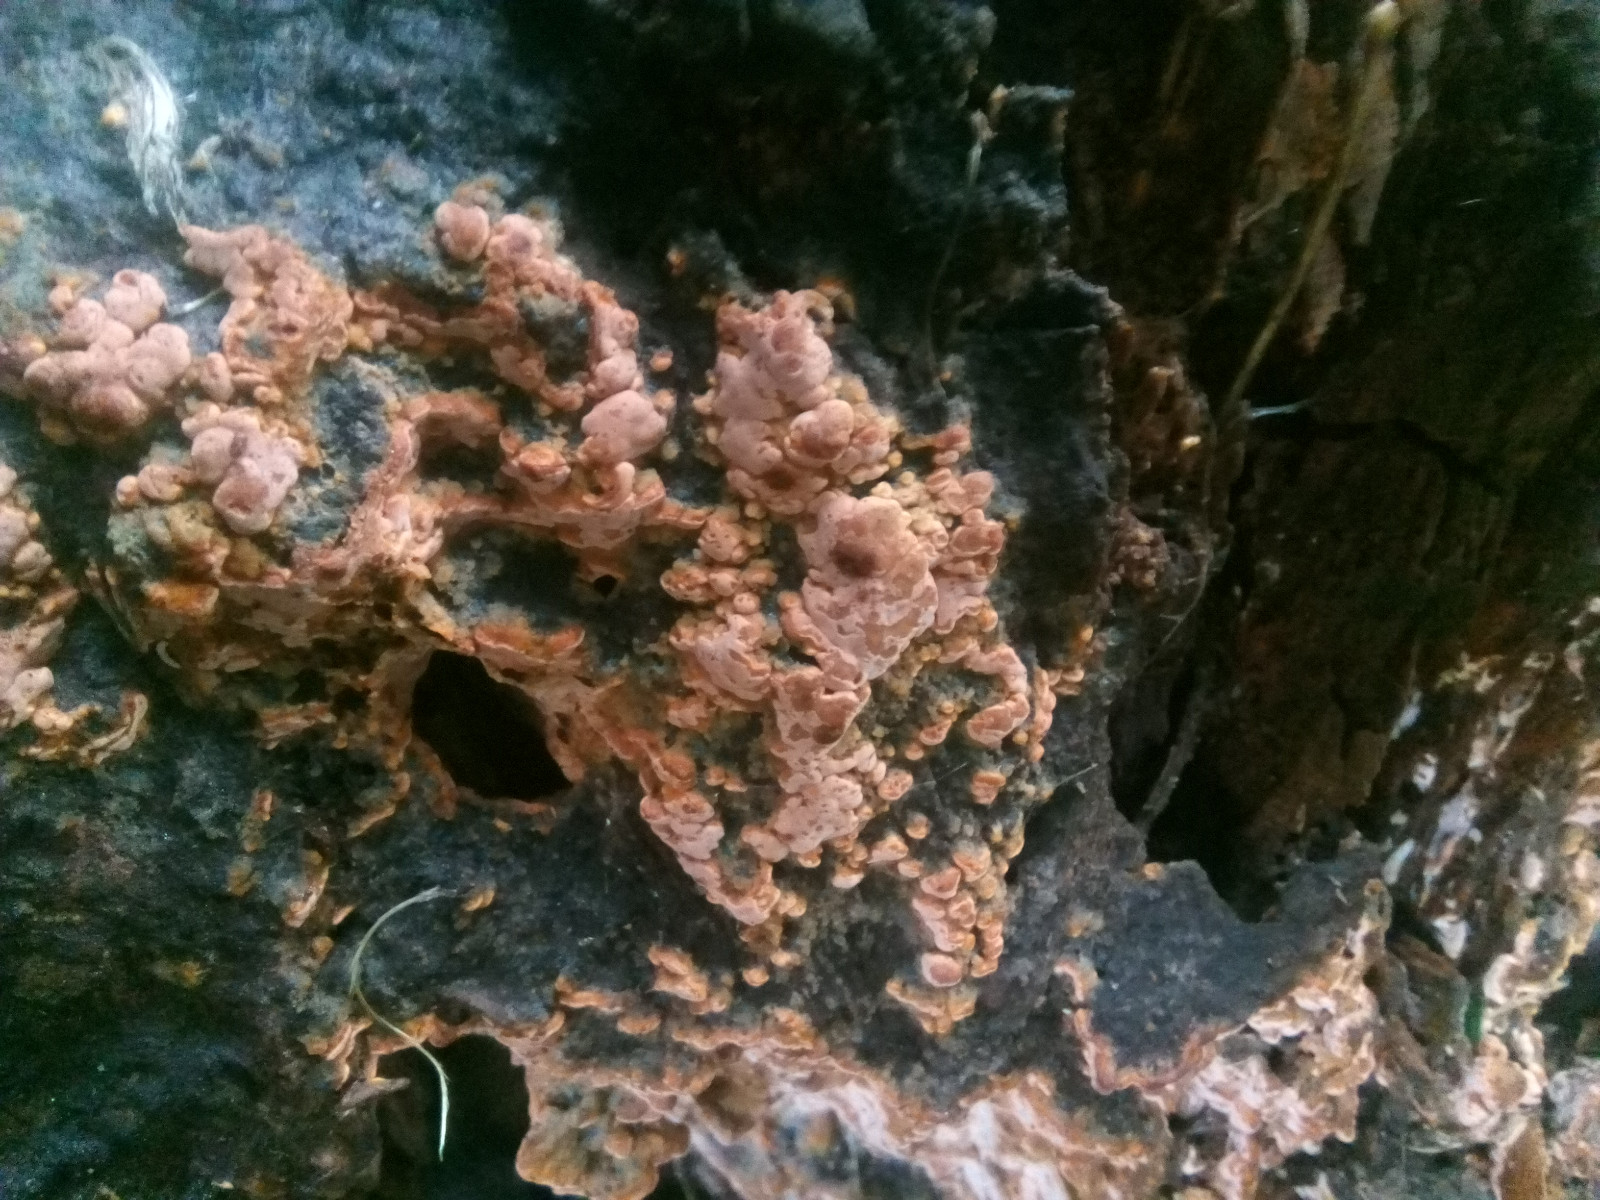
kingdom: Fungi
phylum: Basidiomycota
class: Agaricomycetes
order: Russulales
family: Peniophoraceae
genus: Peniophora
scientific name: Peniophora incarnata
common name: laksefarvet voksskind
